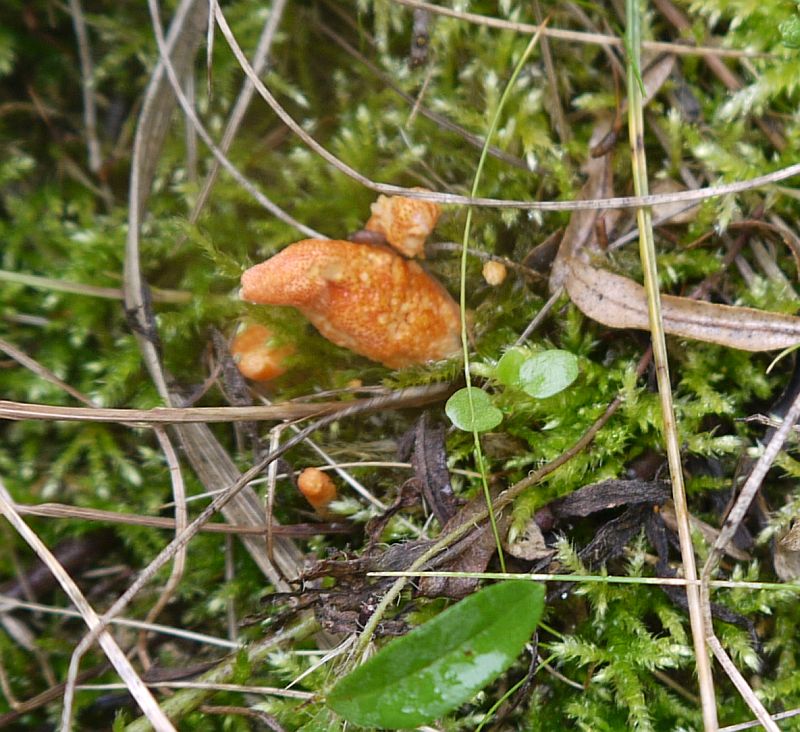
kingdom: Fungi
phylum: Ascomycota
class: Sordariomycetes
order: Hypocreales
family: Cordycipitaceae
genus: Cordyceps
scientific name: Cordyceps militaris
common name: puppe-snyltekølle
